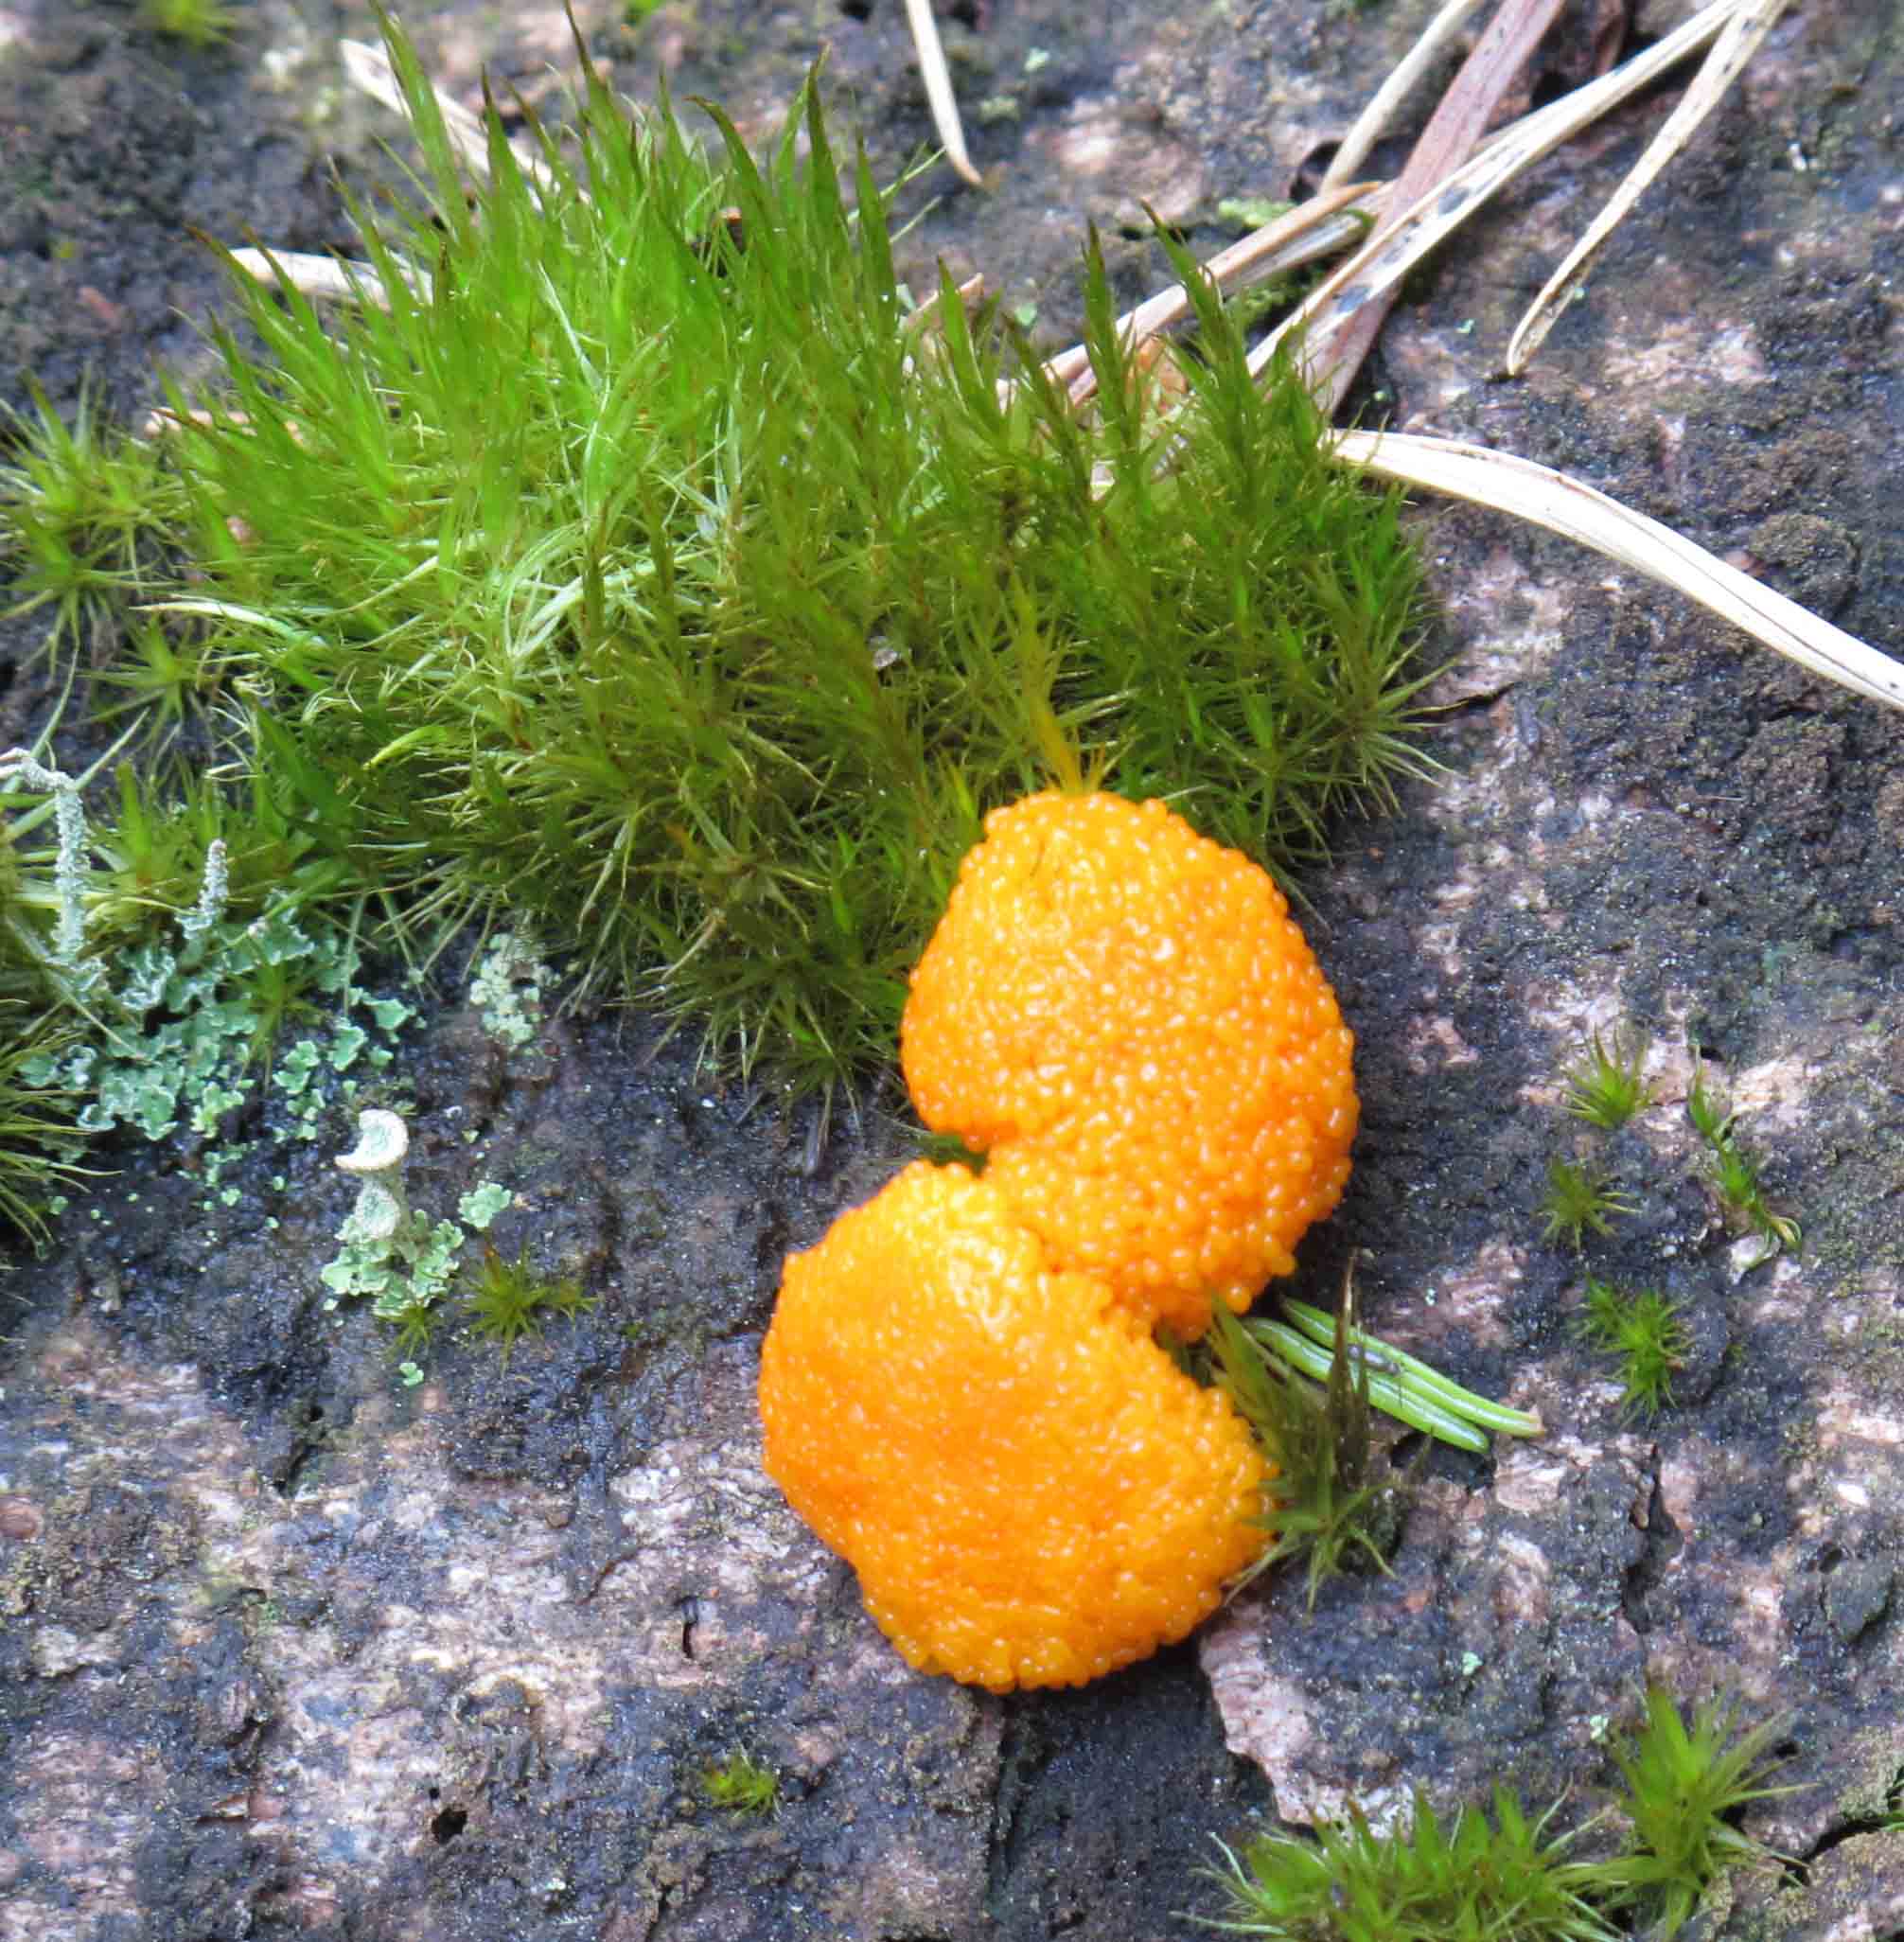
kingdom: Protozoa
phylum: Mycetozoa
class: Myxomycetes
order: Cribrariales
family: Tubiferaceae
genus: Tubifera
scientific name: Tubifera ferruginosa
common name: kanel-støvrør
